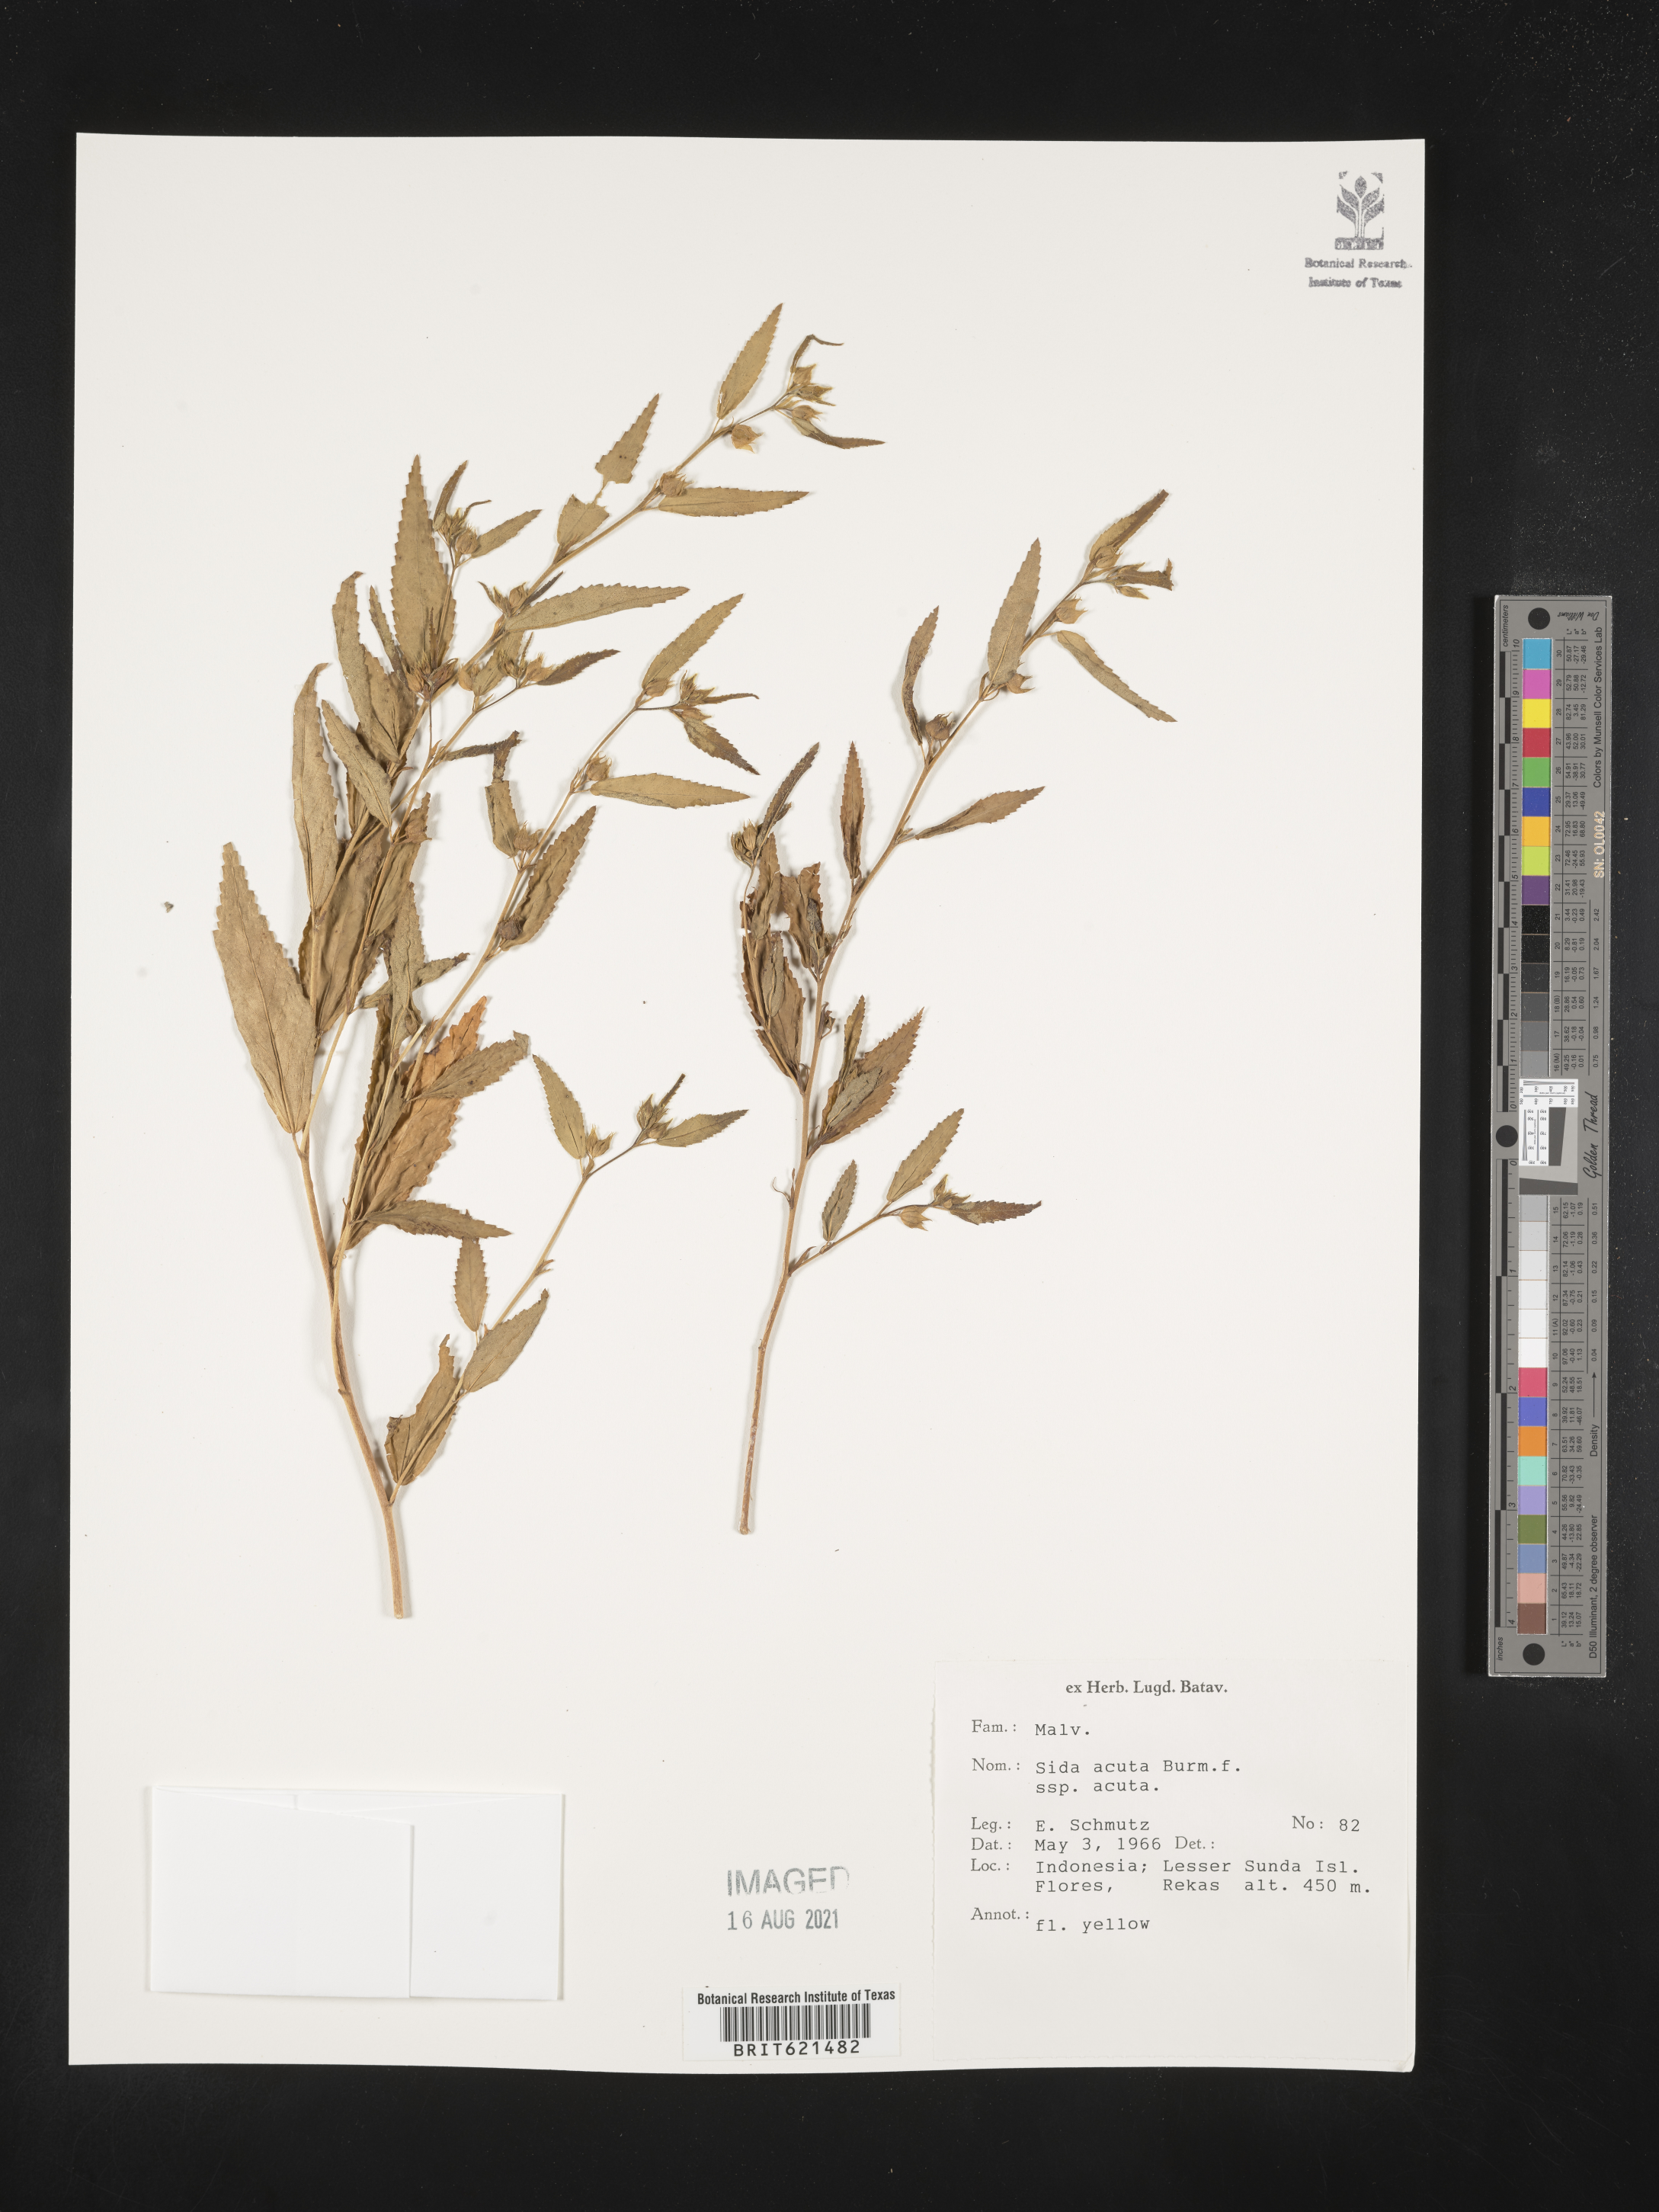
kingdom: Plantae
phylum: Tracheophyta
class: Magnoliopsida
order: Malvales
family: Malvaceae
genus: Sida
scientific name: Sida acuta
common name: Common wireweed
